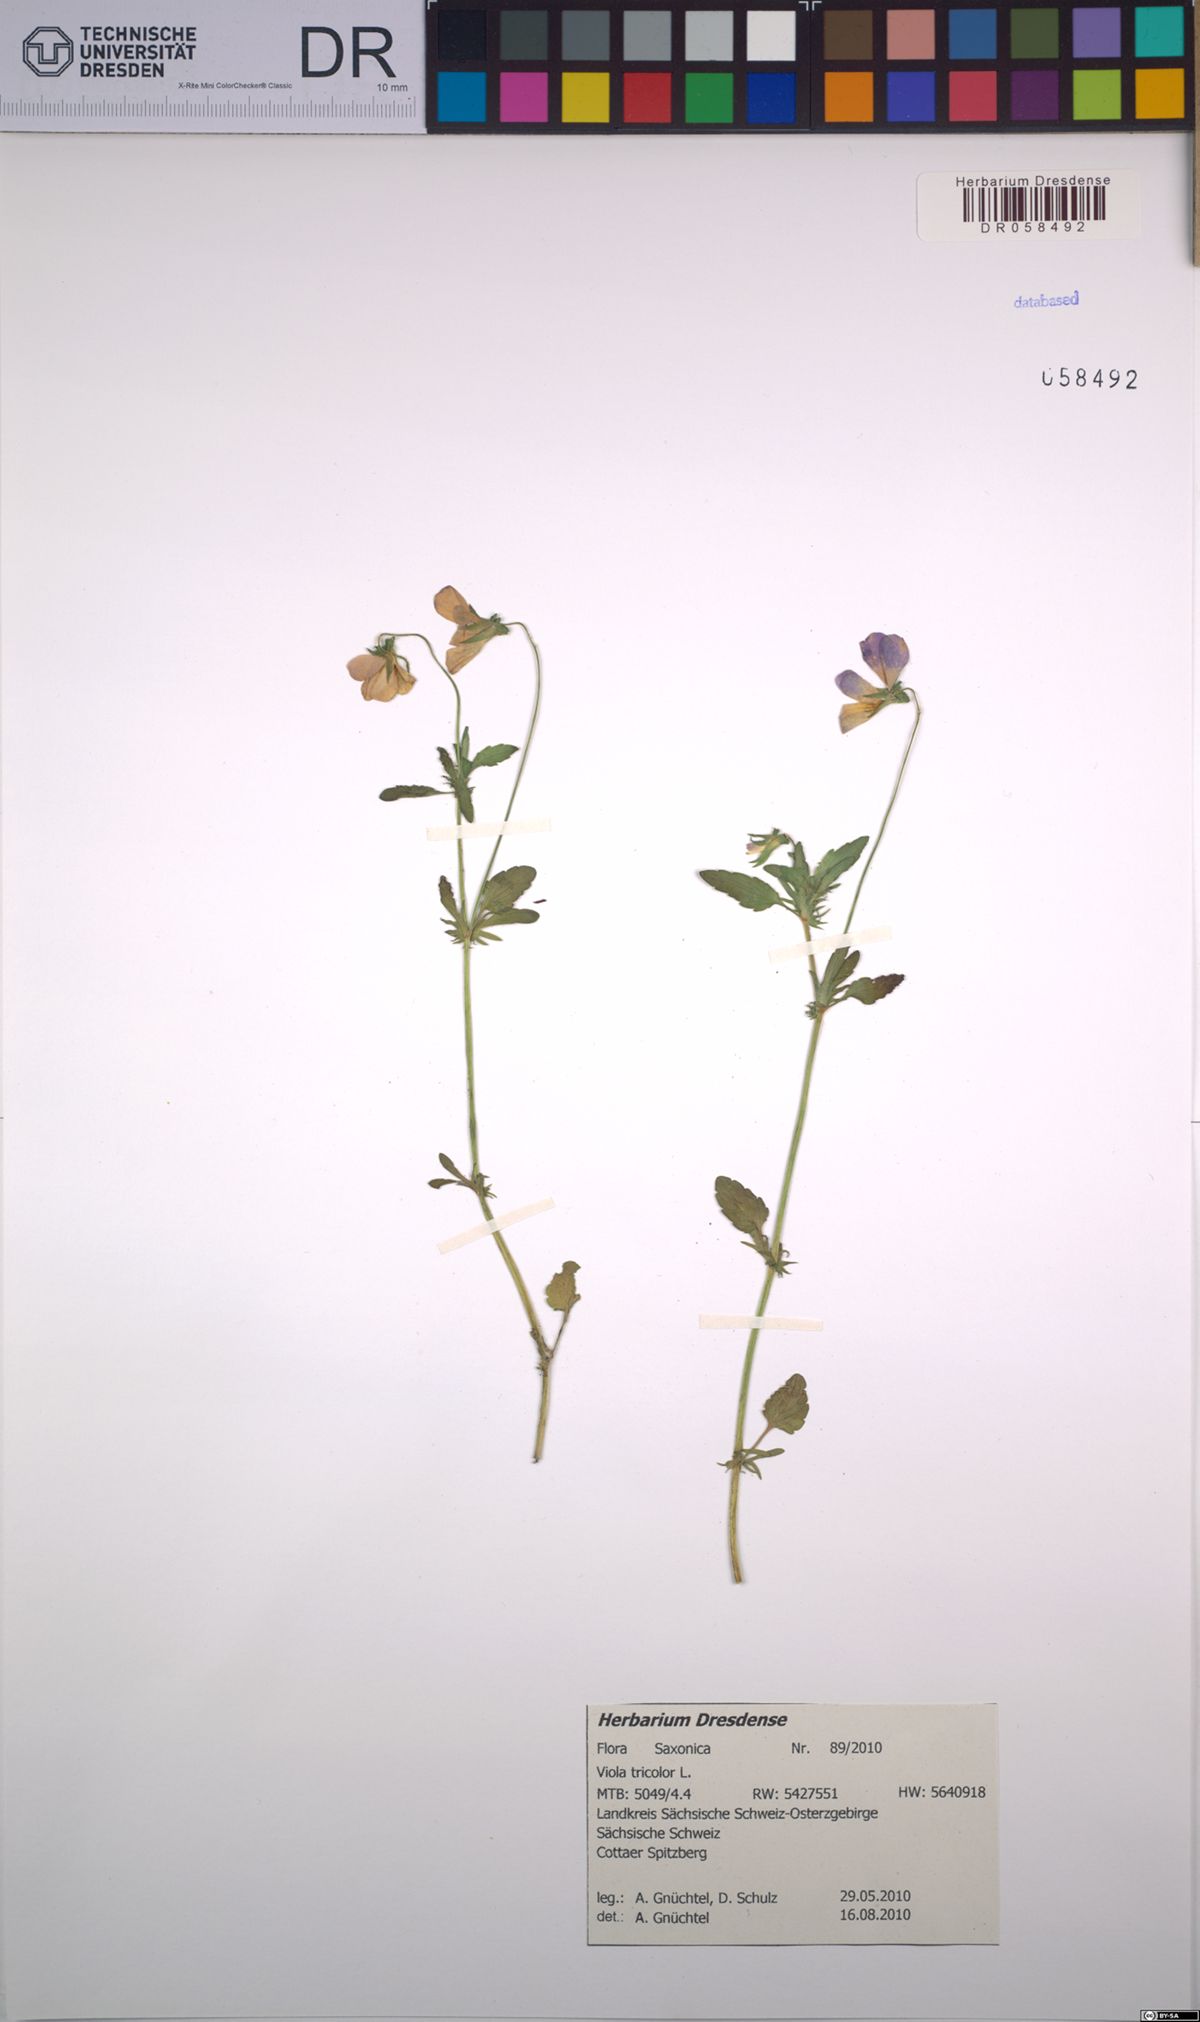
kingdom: Plantae
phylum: Tracheophyta
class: Magnoliopsida
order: Malpighiales
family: Violaceae
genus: Viola
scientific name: Viola tricolor
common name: Pansy
